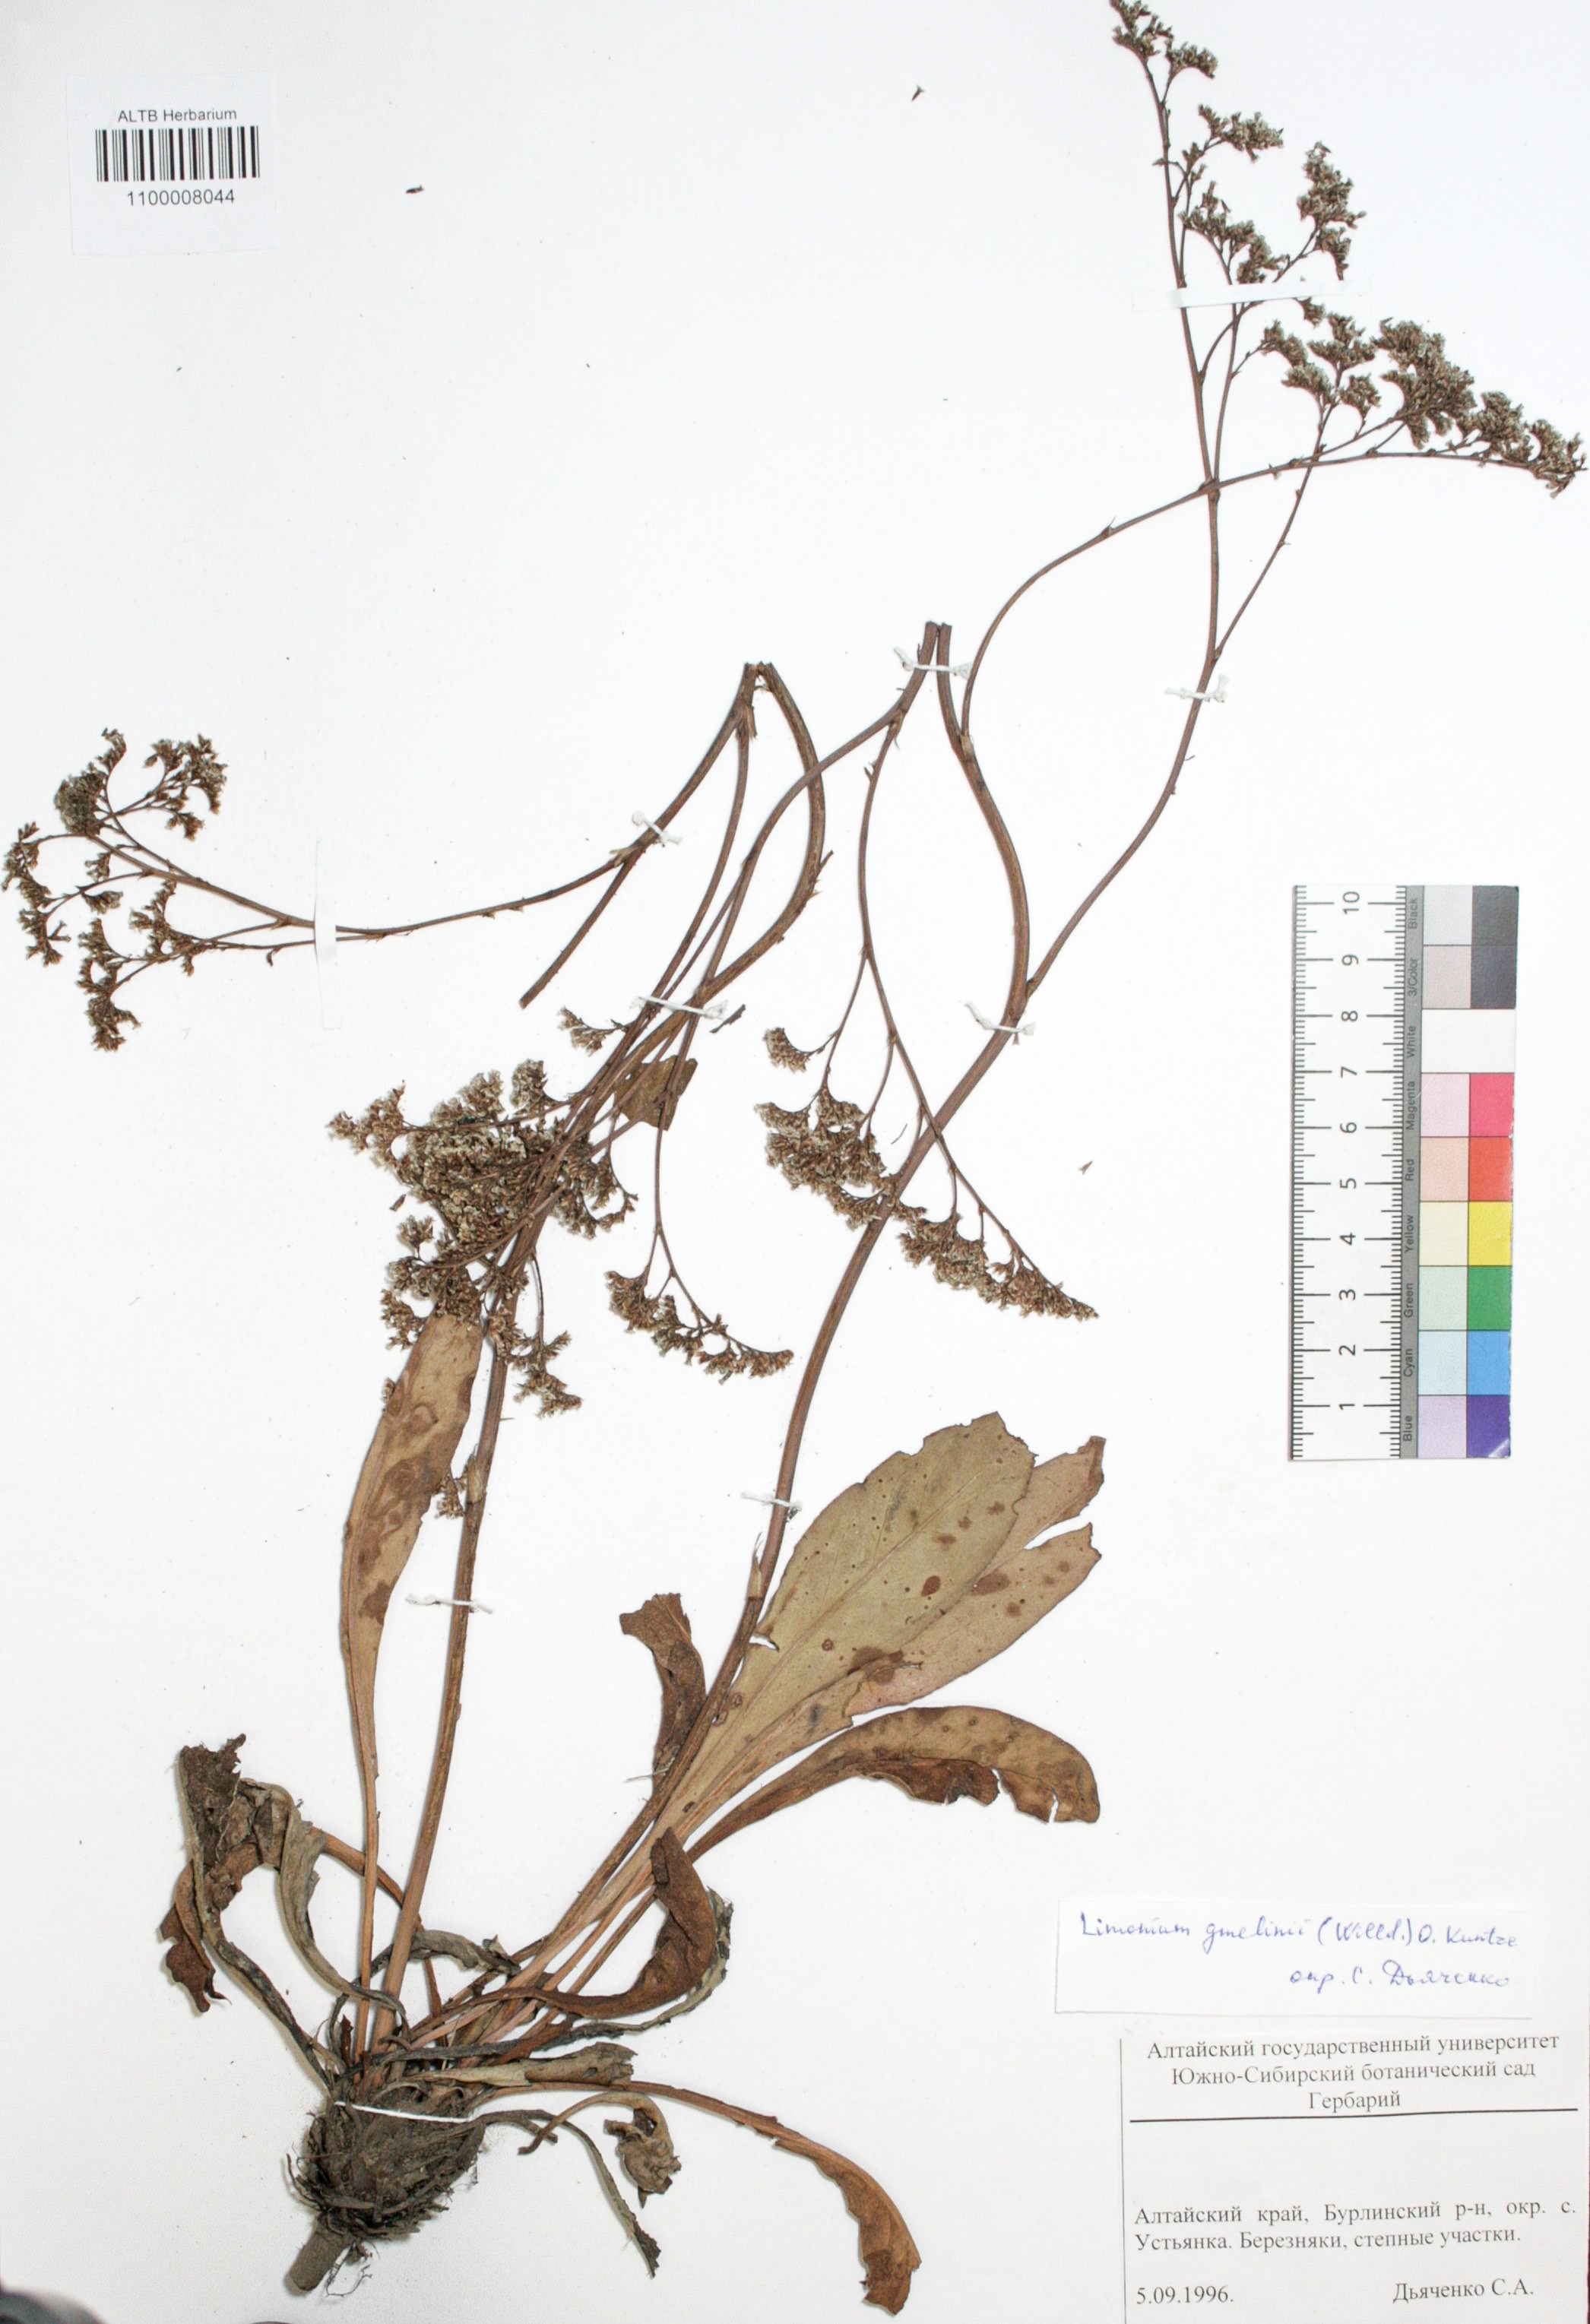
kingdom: Plantae
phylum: Tracheophyta
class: Magnoliopsida
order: Caryophyllales
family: Plumbaginaceae
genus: Limonium
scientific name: Limonium gmelini
